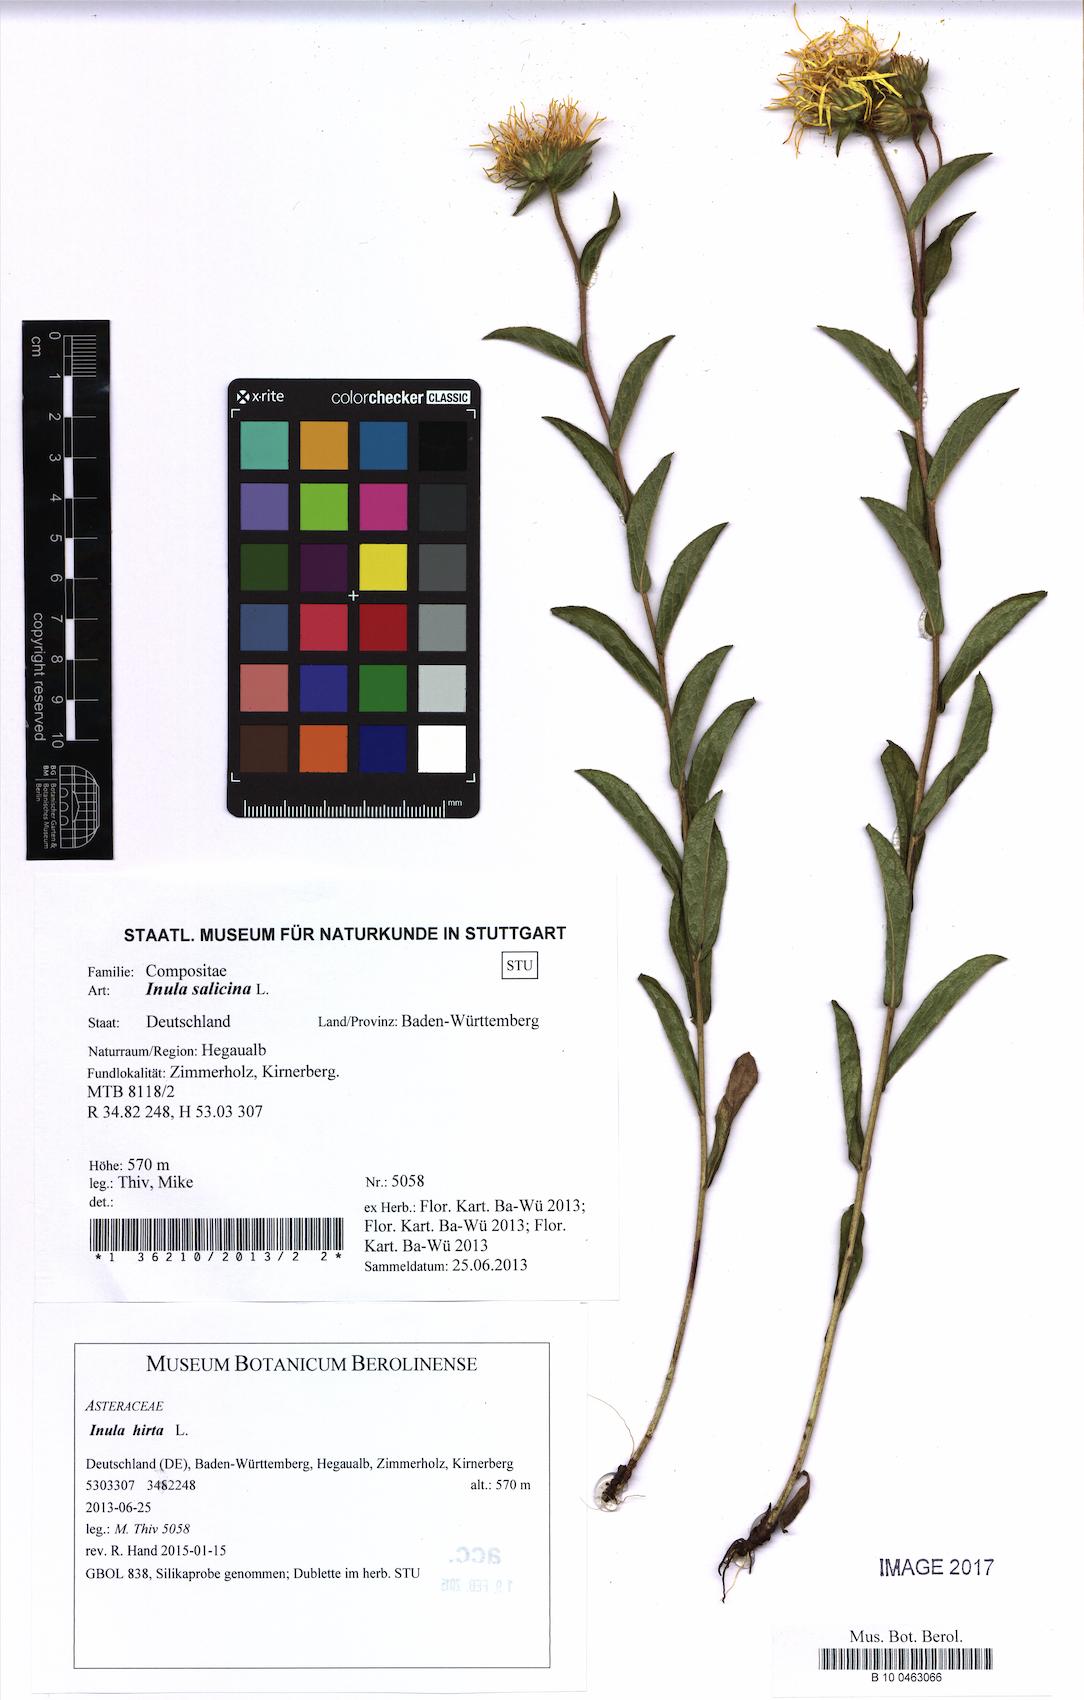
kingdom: Plantae
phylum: Tracheophyta
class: Magnoliopsida
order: Asterales
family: Asteraceae
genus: Pentanema
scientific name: Pentanema hirtum
